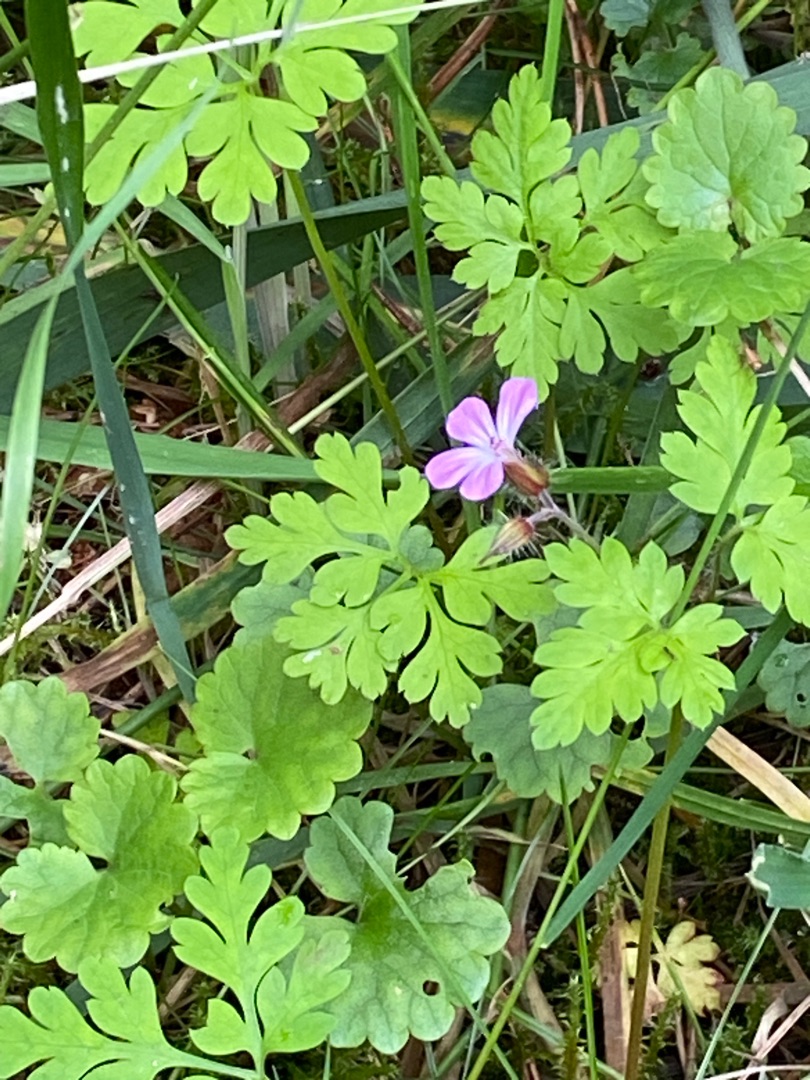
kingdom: Plantae
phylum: Tracheophyta
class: Magnoliopsida
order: Geraniales
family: Geraniaceae
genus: Geranium
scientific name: Geranium robertianum
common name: Stinkende storkenæb
